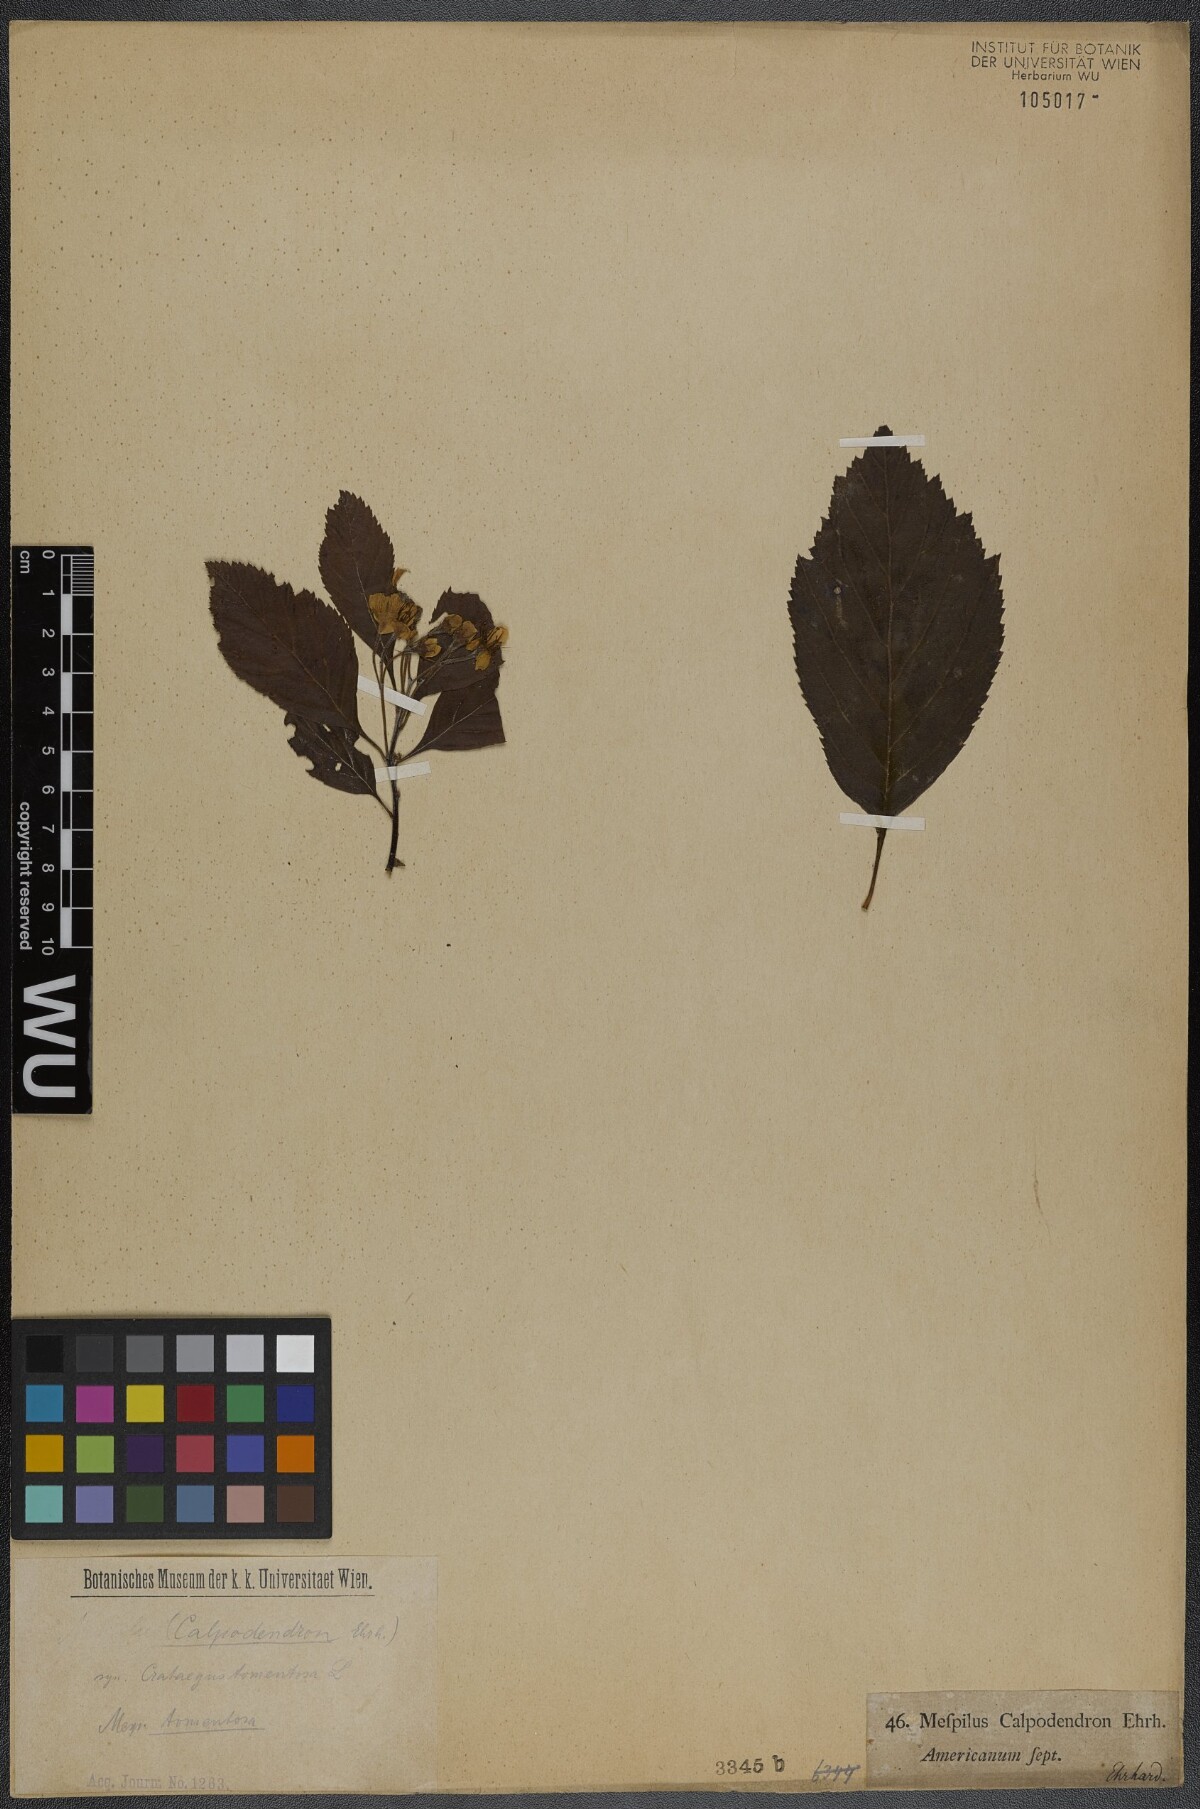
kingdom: Plantae
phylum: Tracheophyta
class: Magnoliopsida
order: Rosales
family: Rosaceae
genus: Crataegus
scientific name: Crataegus calpodendron
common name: Pear hawthorn
